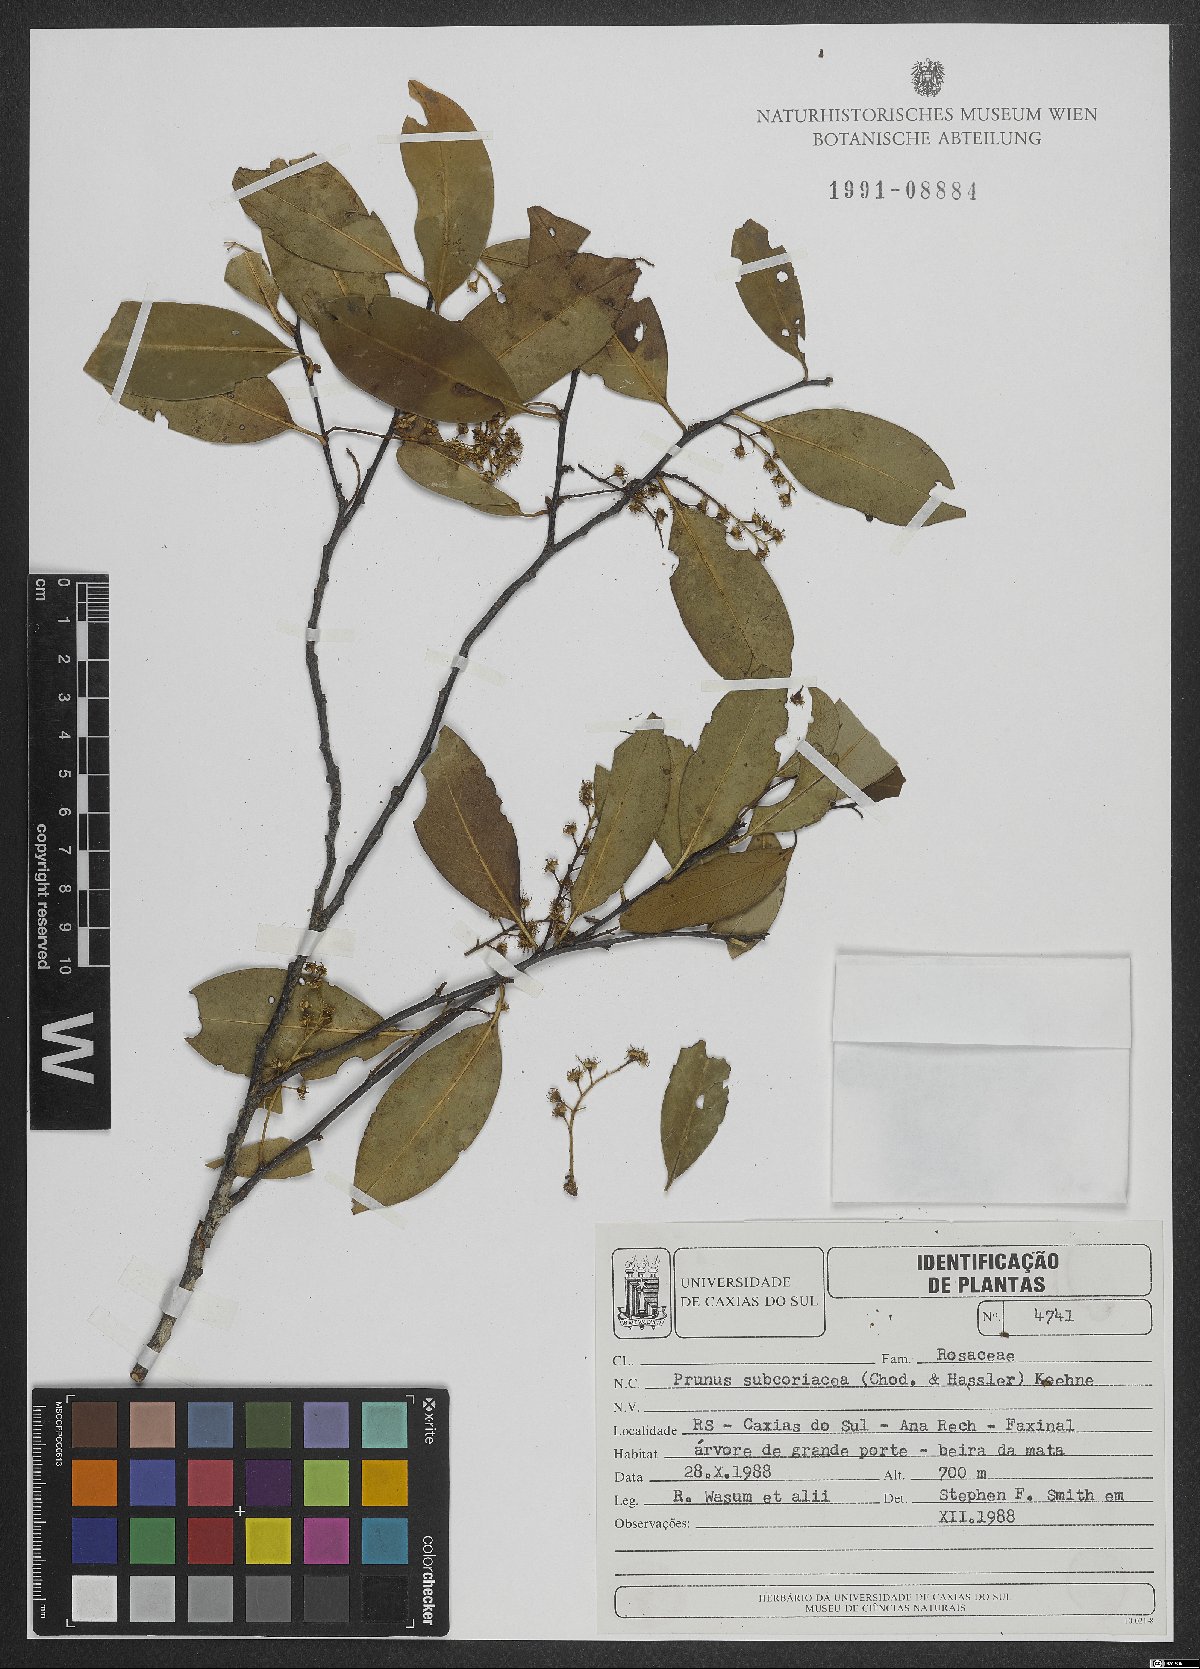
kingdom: Plantae
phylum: Tracheophyta
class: Magnoliopsida
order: Rosales
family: Rosaceae
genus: Prunus
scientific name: Prunus subcoriacea
